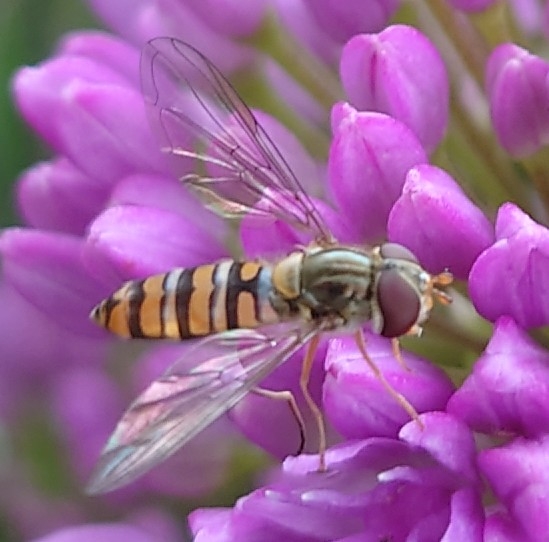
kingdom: Animalia
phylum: Arthropoda
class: Insecta
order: Diptera
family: Syrphidae
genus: Episyrphus
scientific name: Episyrphus balteatus
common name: Dobbeltbåndet svirreflue
